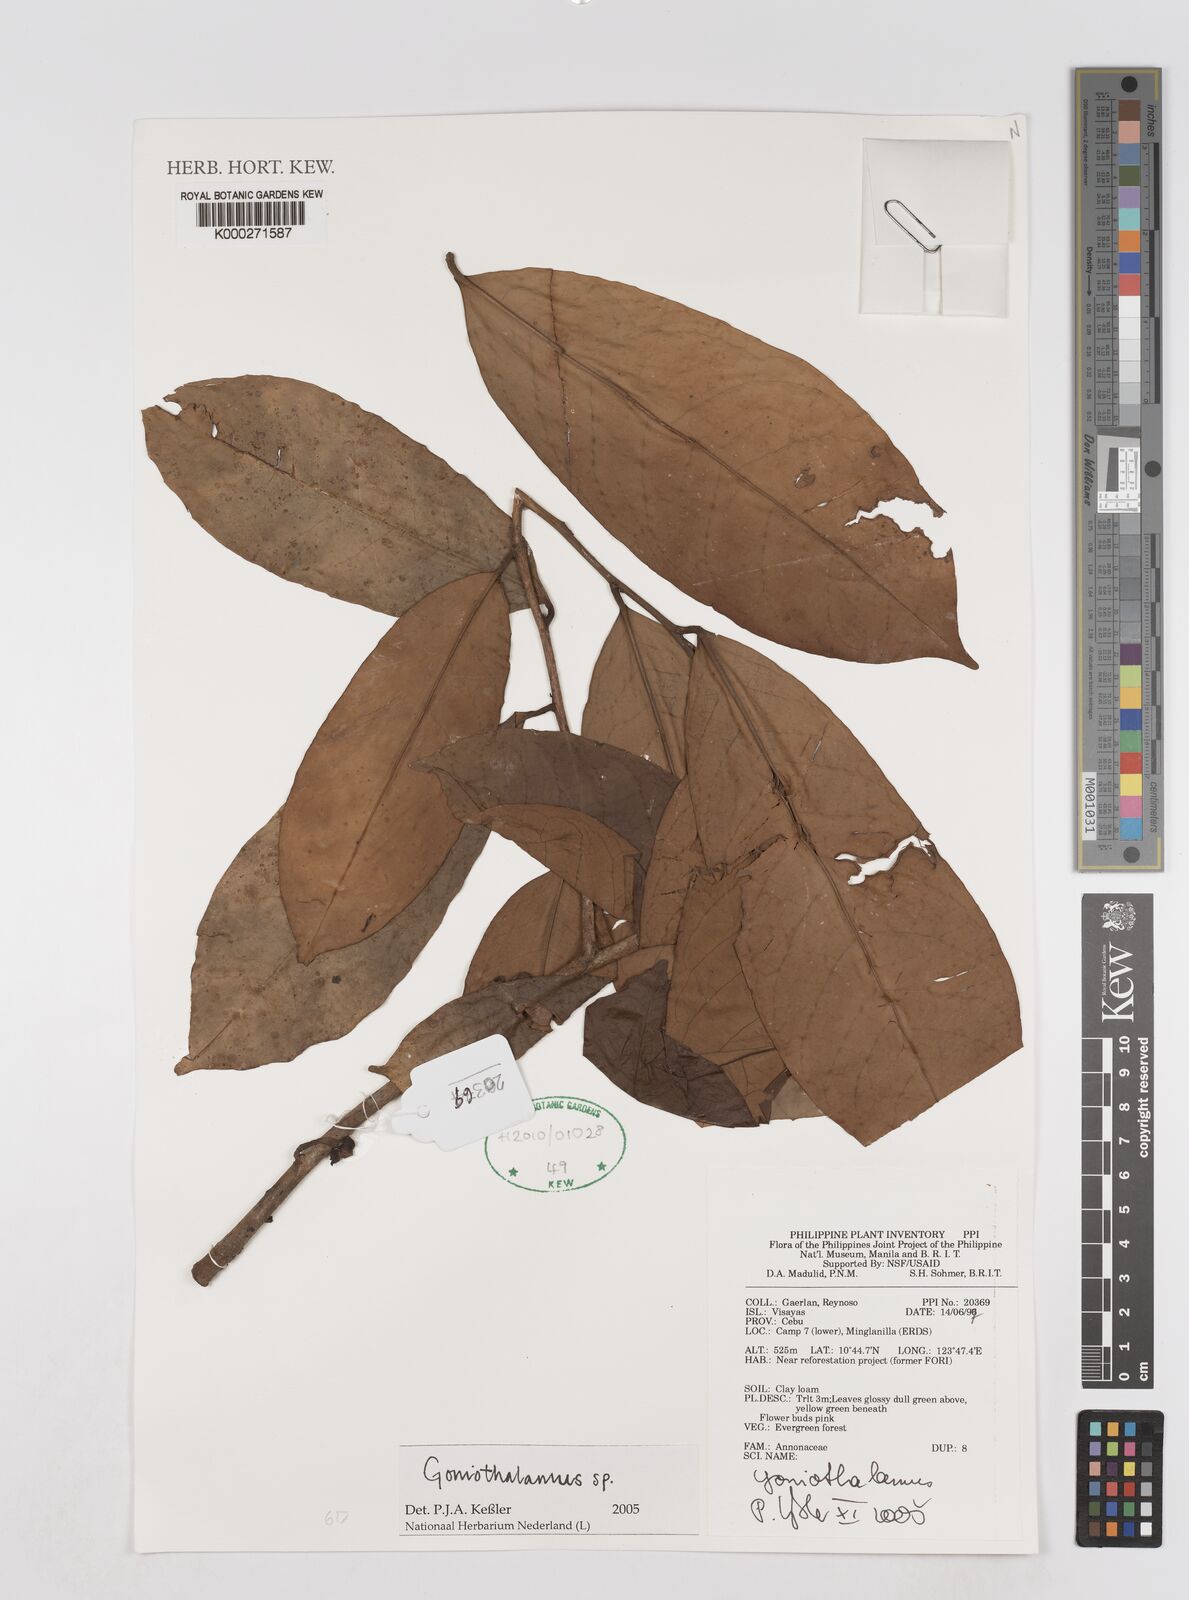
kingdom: Plantae
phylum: Tracheophyta
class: Magnoliopsida
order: Magnoliales
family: Annonaceae
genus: Goniothalamus
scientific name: Goniothalamus
